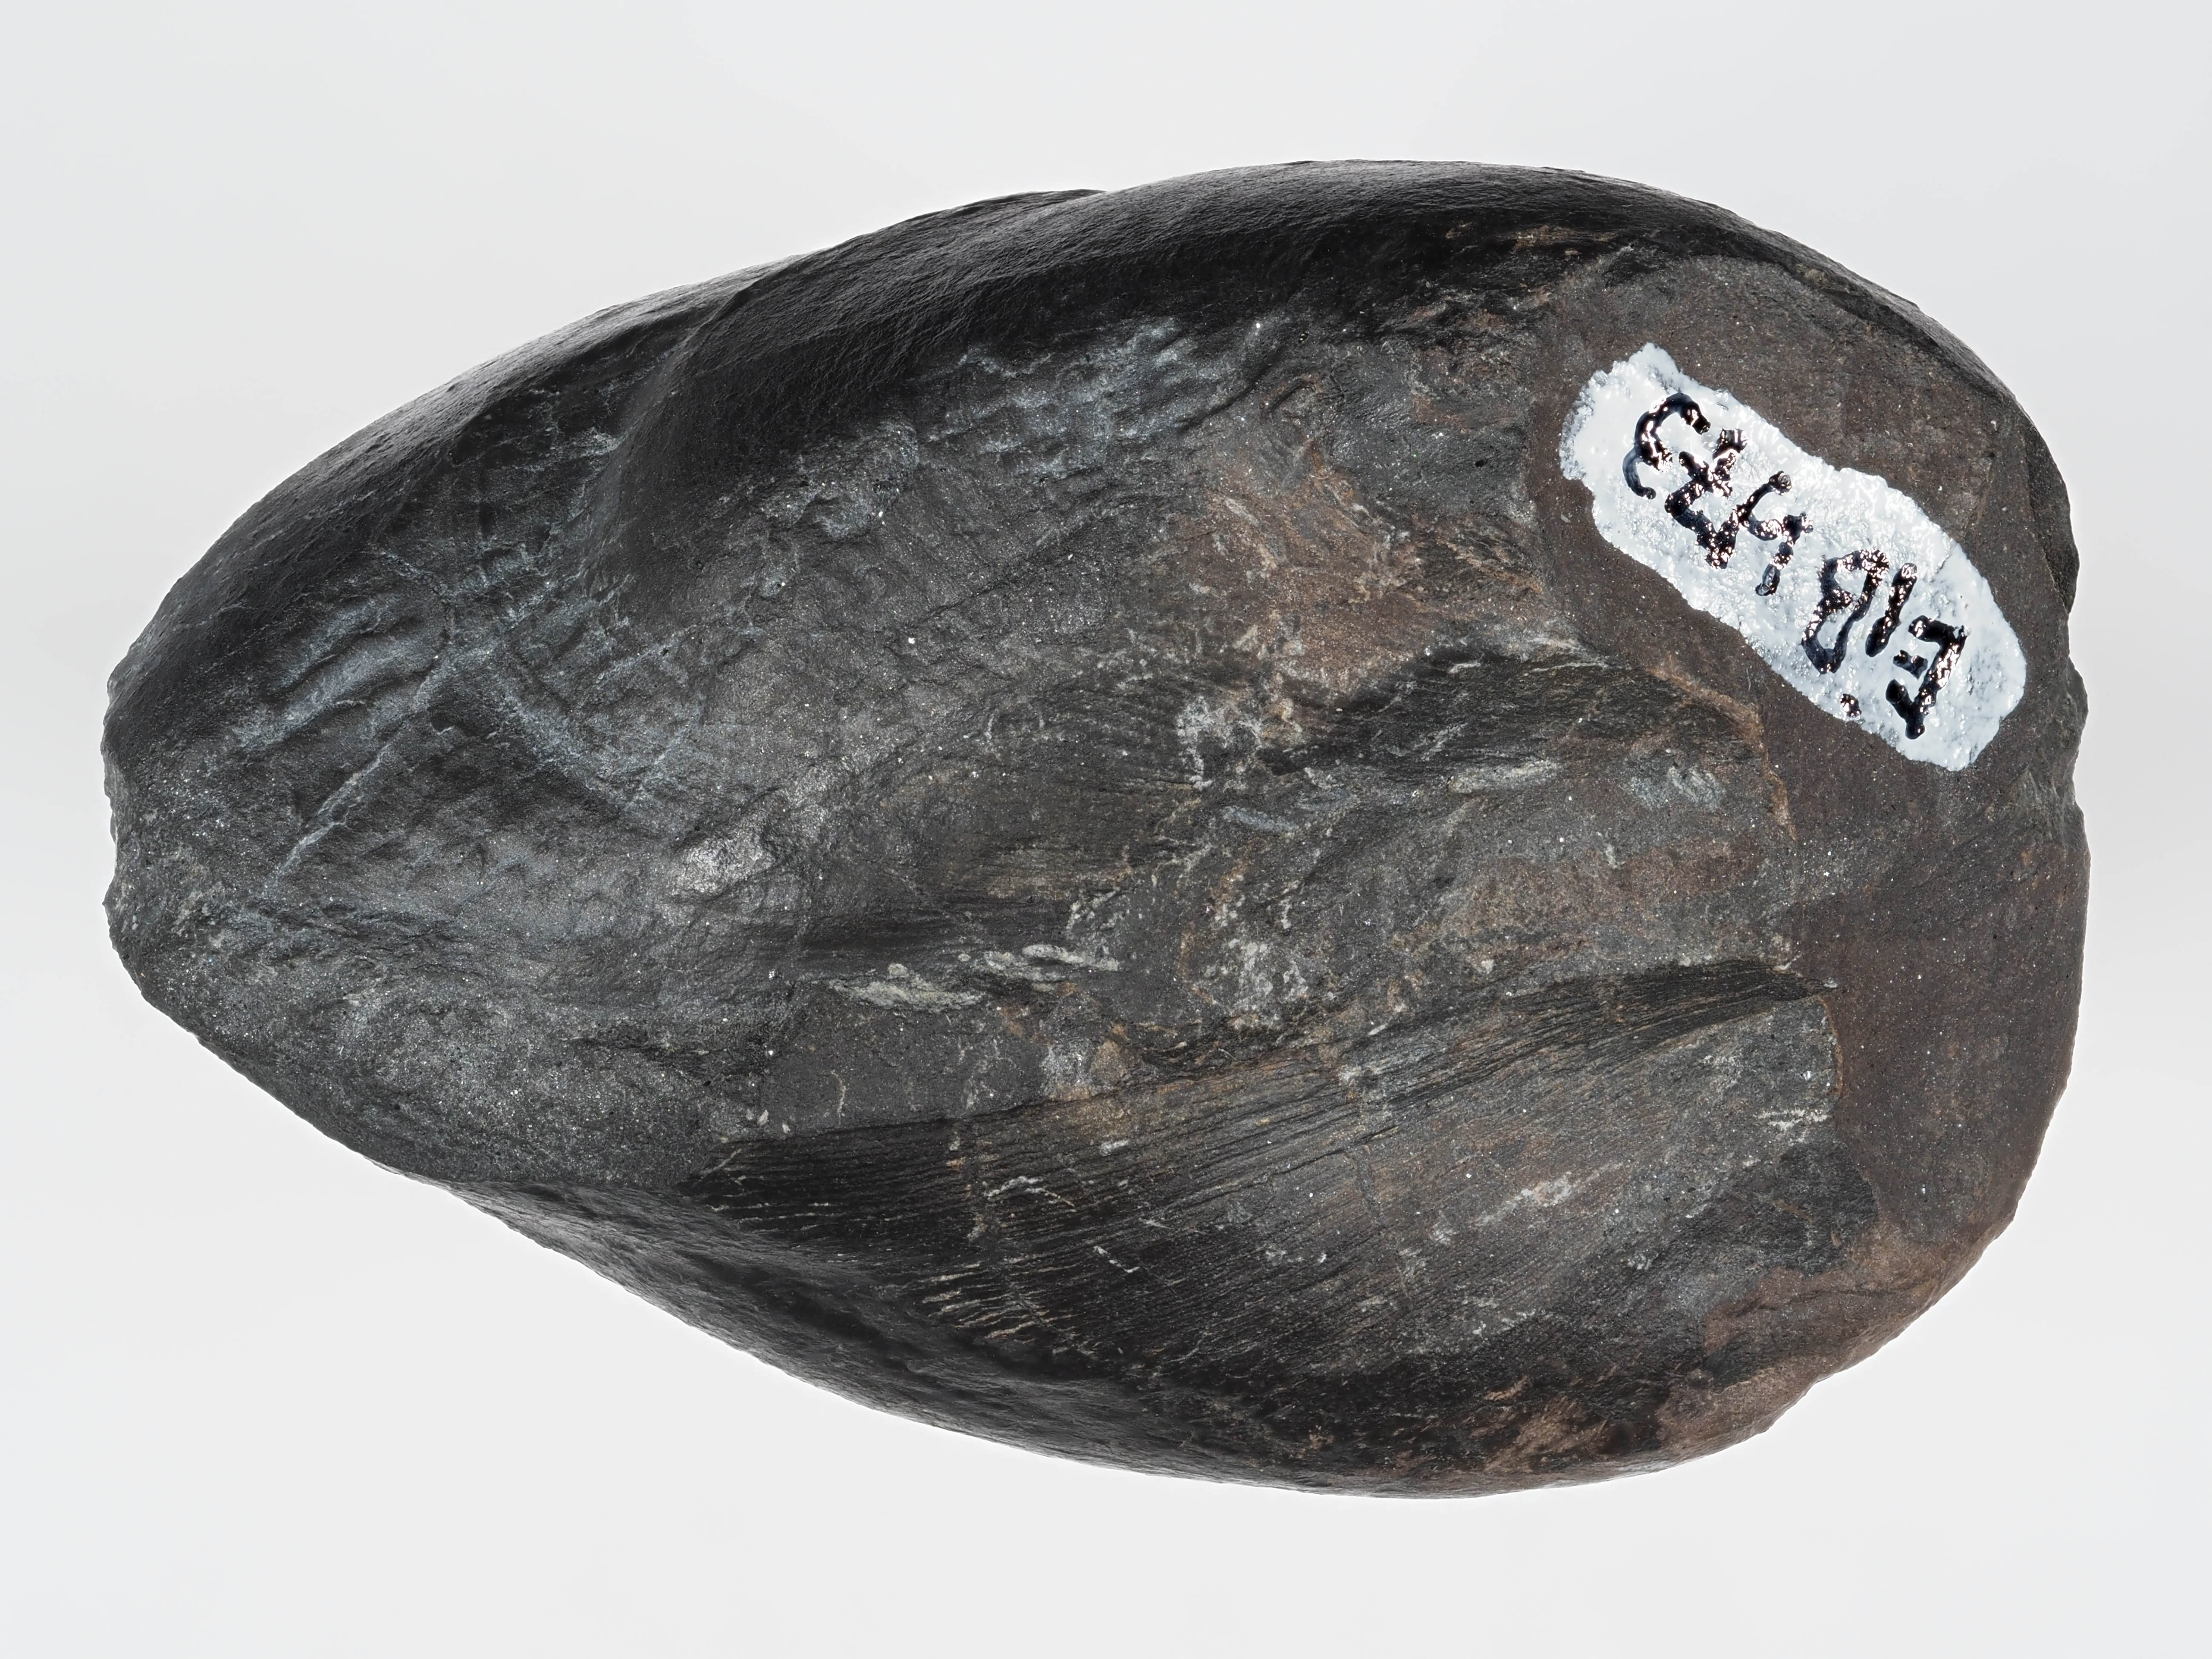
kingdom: Animalia
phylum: Mollusca
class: Bivalvia
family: Pholadomyidae
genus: Allorisma
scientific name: Allorisma
